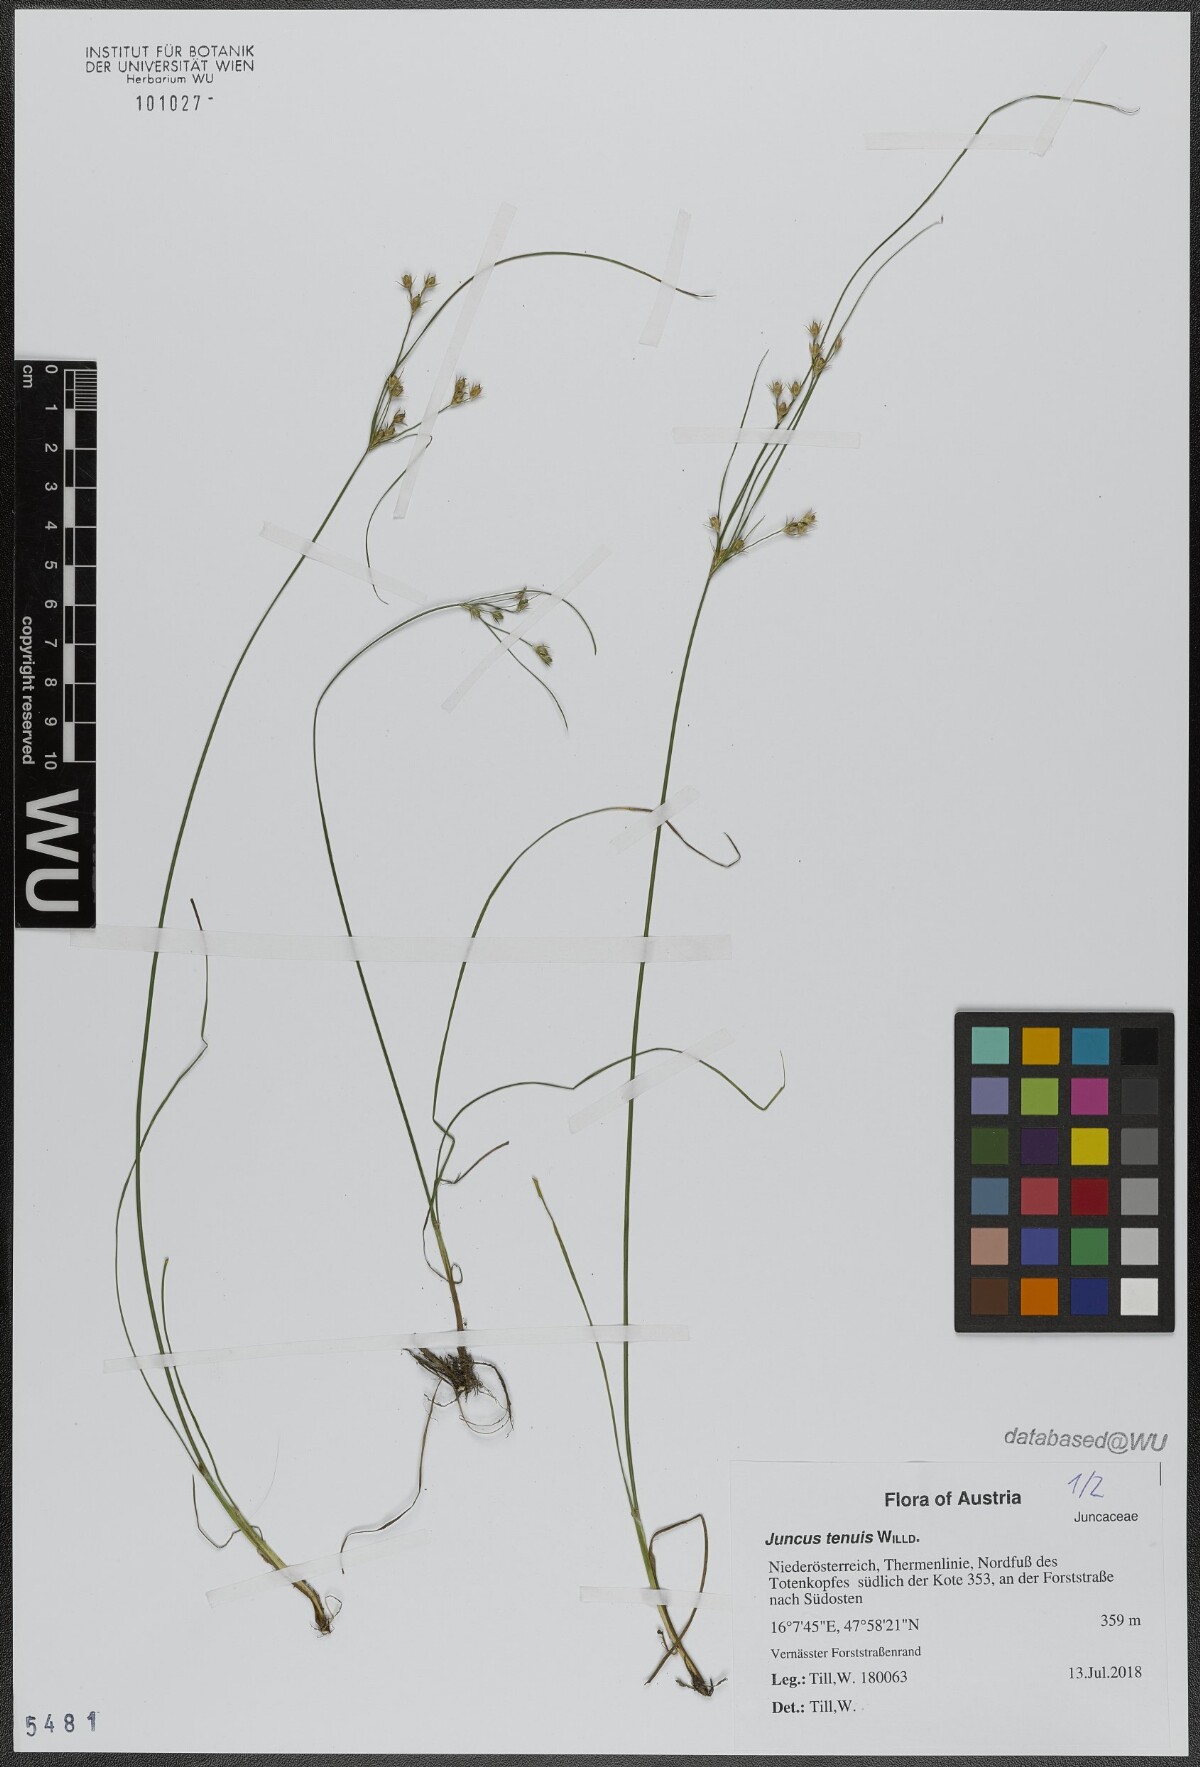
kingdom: Plantae
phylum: Tracheophyta
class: Liliopsida
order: Poales
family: Juncaceae
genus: Juncus
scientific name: Juncus tenuis
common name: Slender rush
